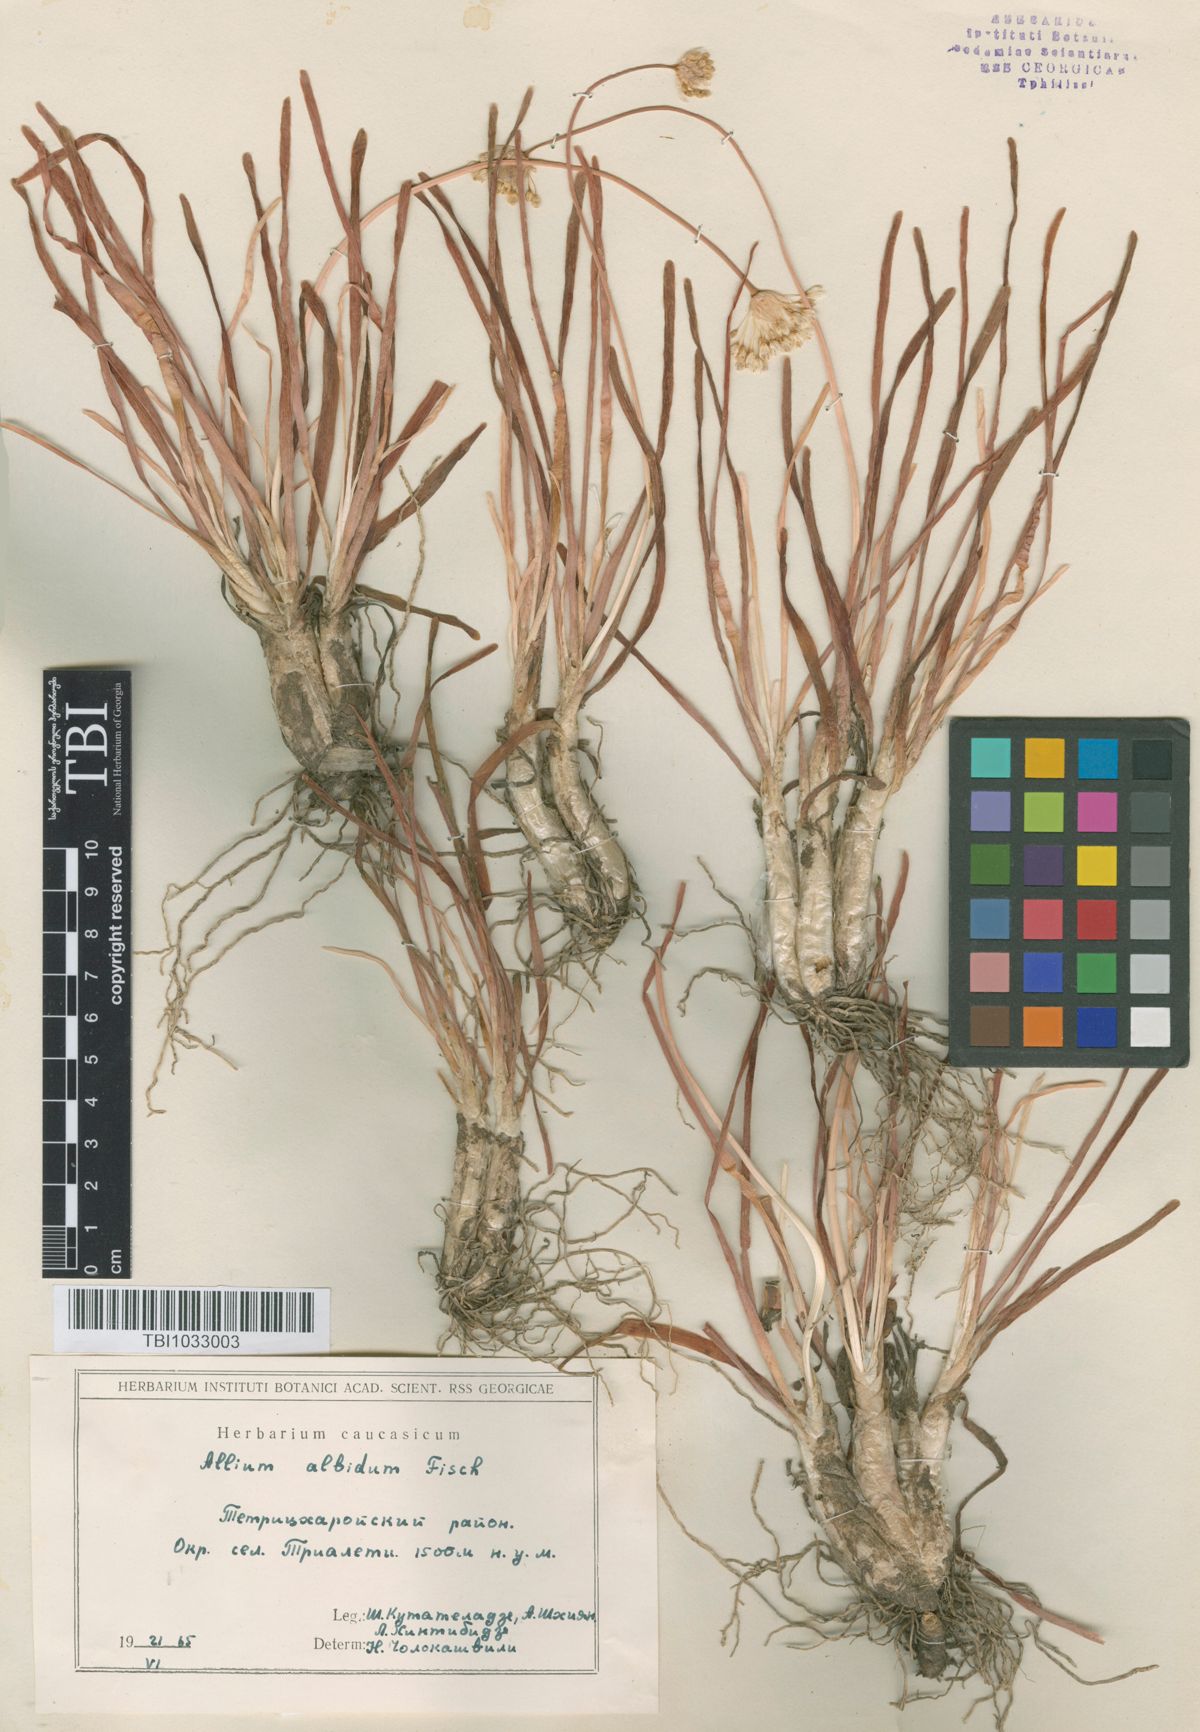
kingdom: Plantae
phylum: Tracheophyta
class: Liliopsida
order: Asparagales
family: Amaryllidaceae
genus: Allium
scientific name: Allium denudatum
